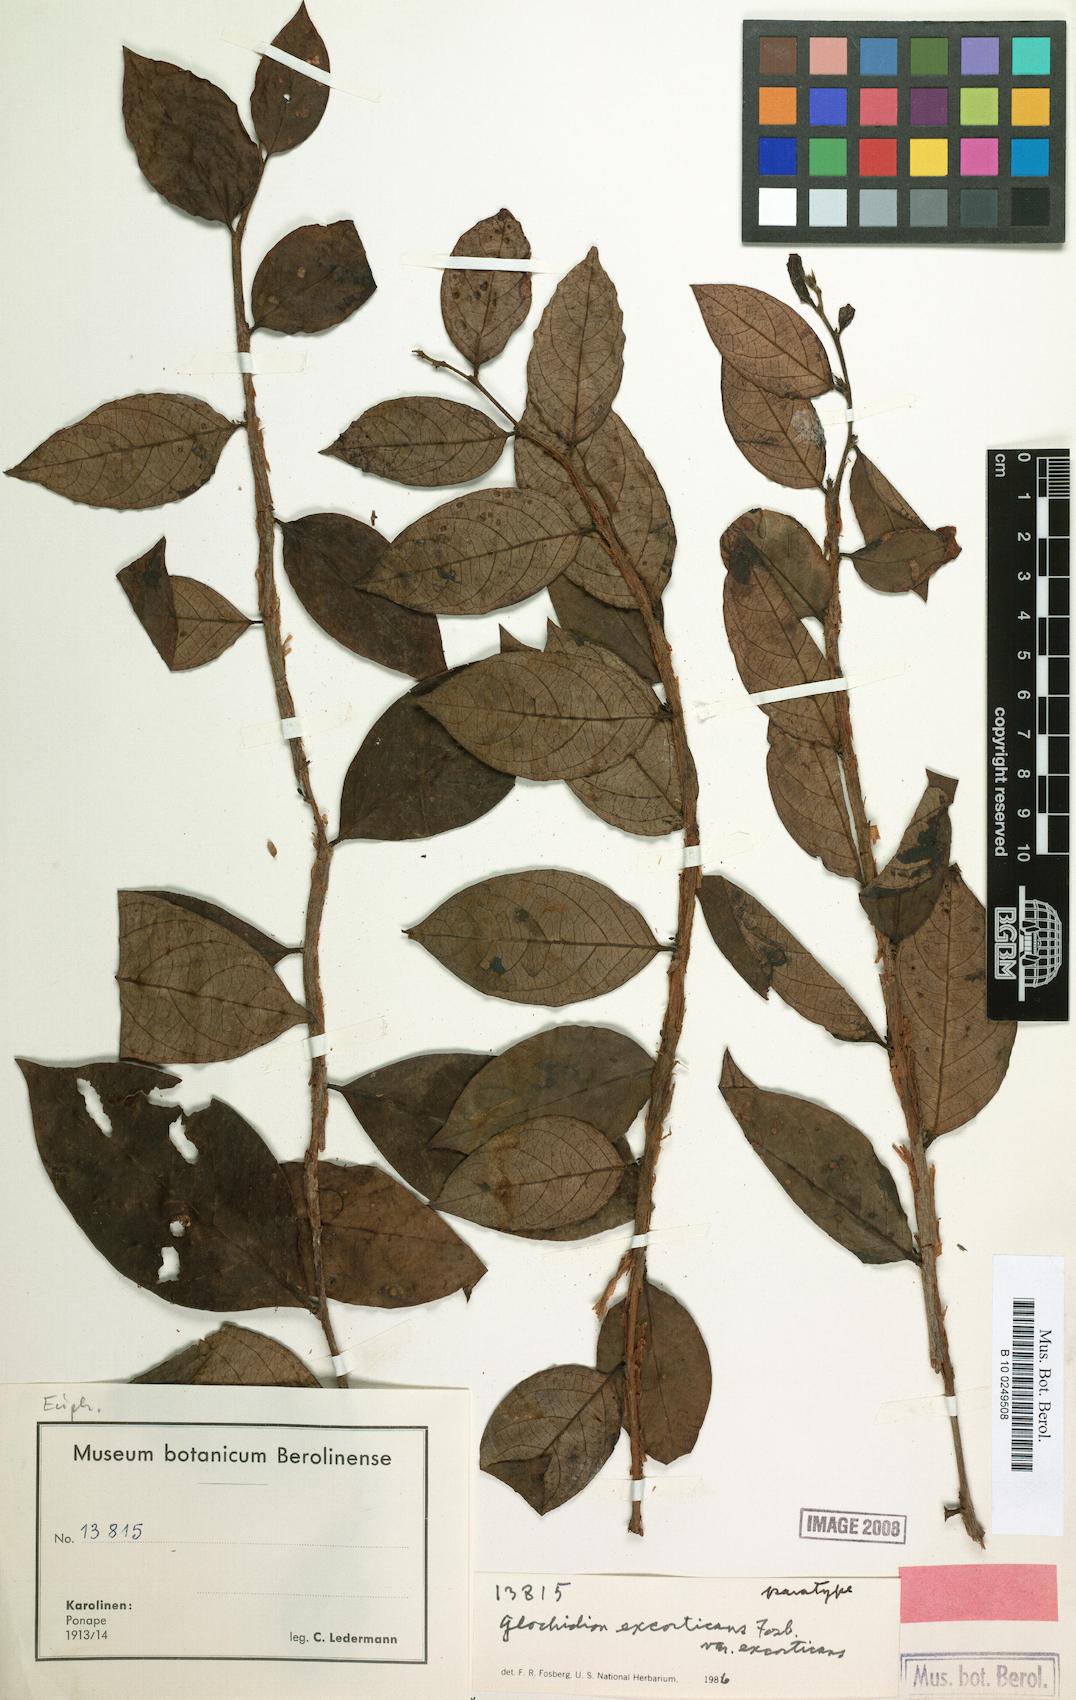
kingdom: Plantae
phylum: Tracheophyta
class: Magnoliopsida
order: Malpighiales
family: Phyllanthaceae
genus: Glochidion
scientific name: Glochidion puberulum
